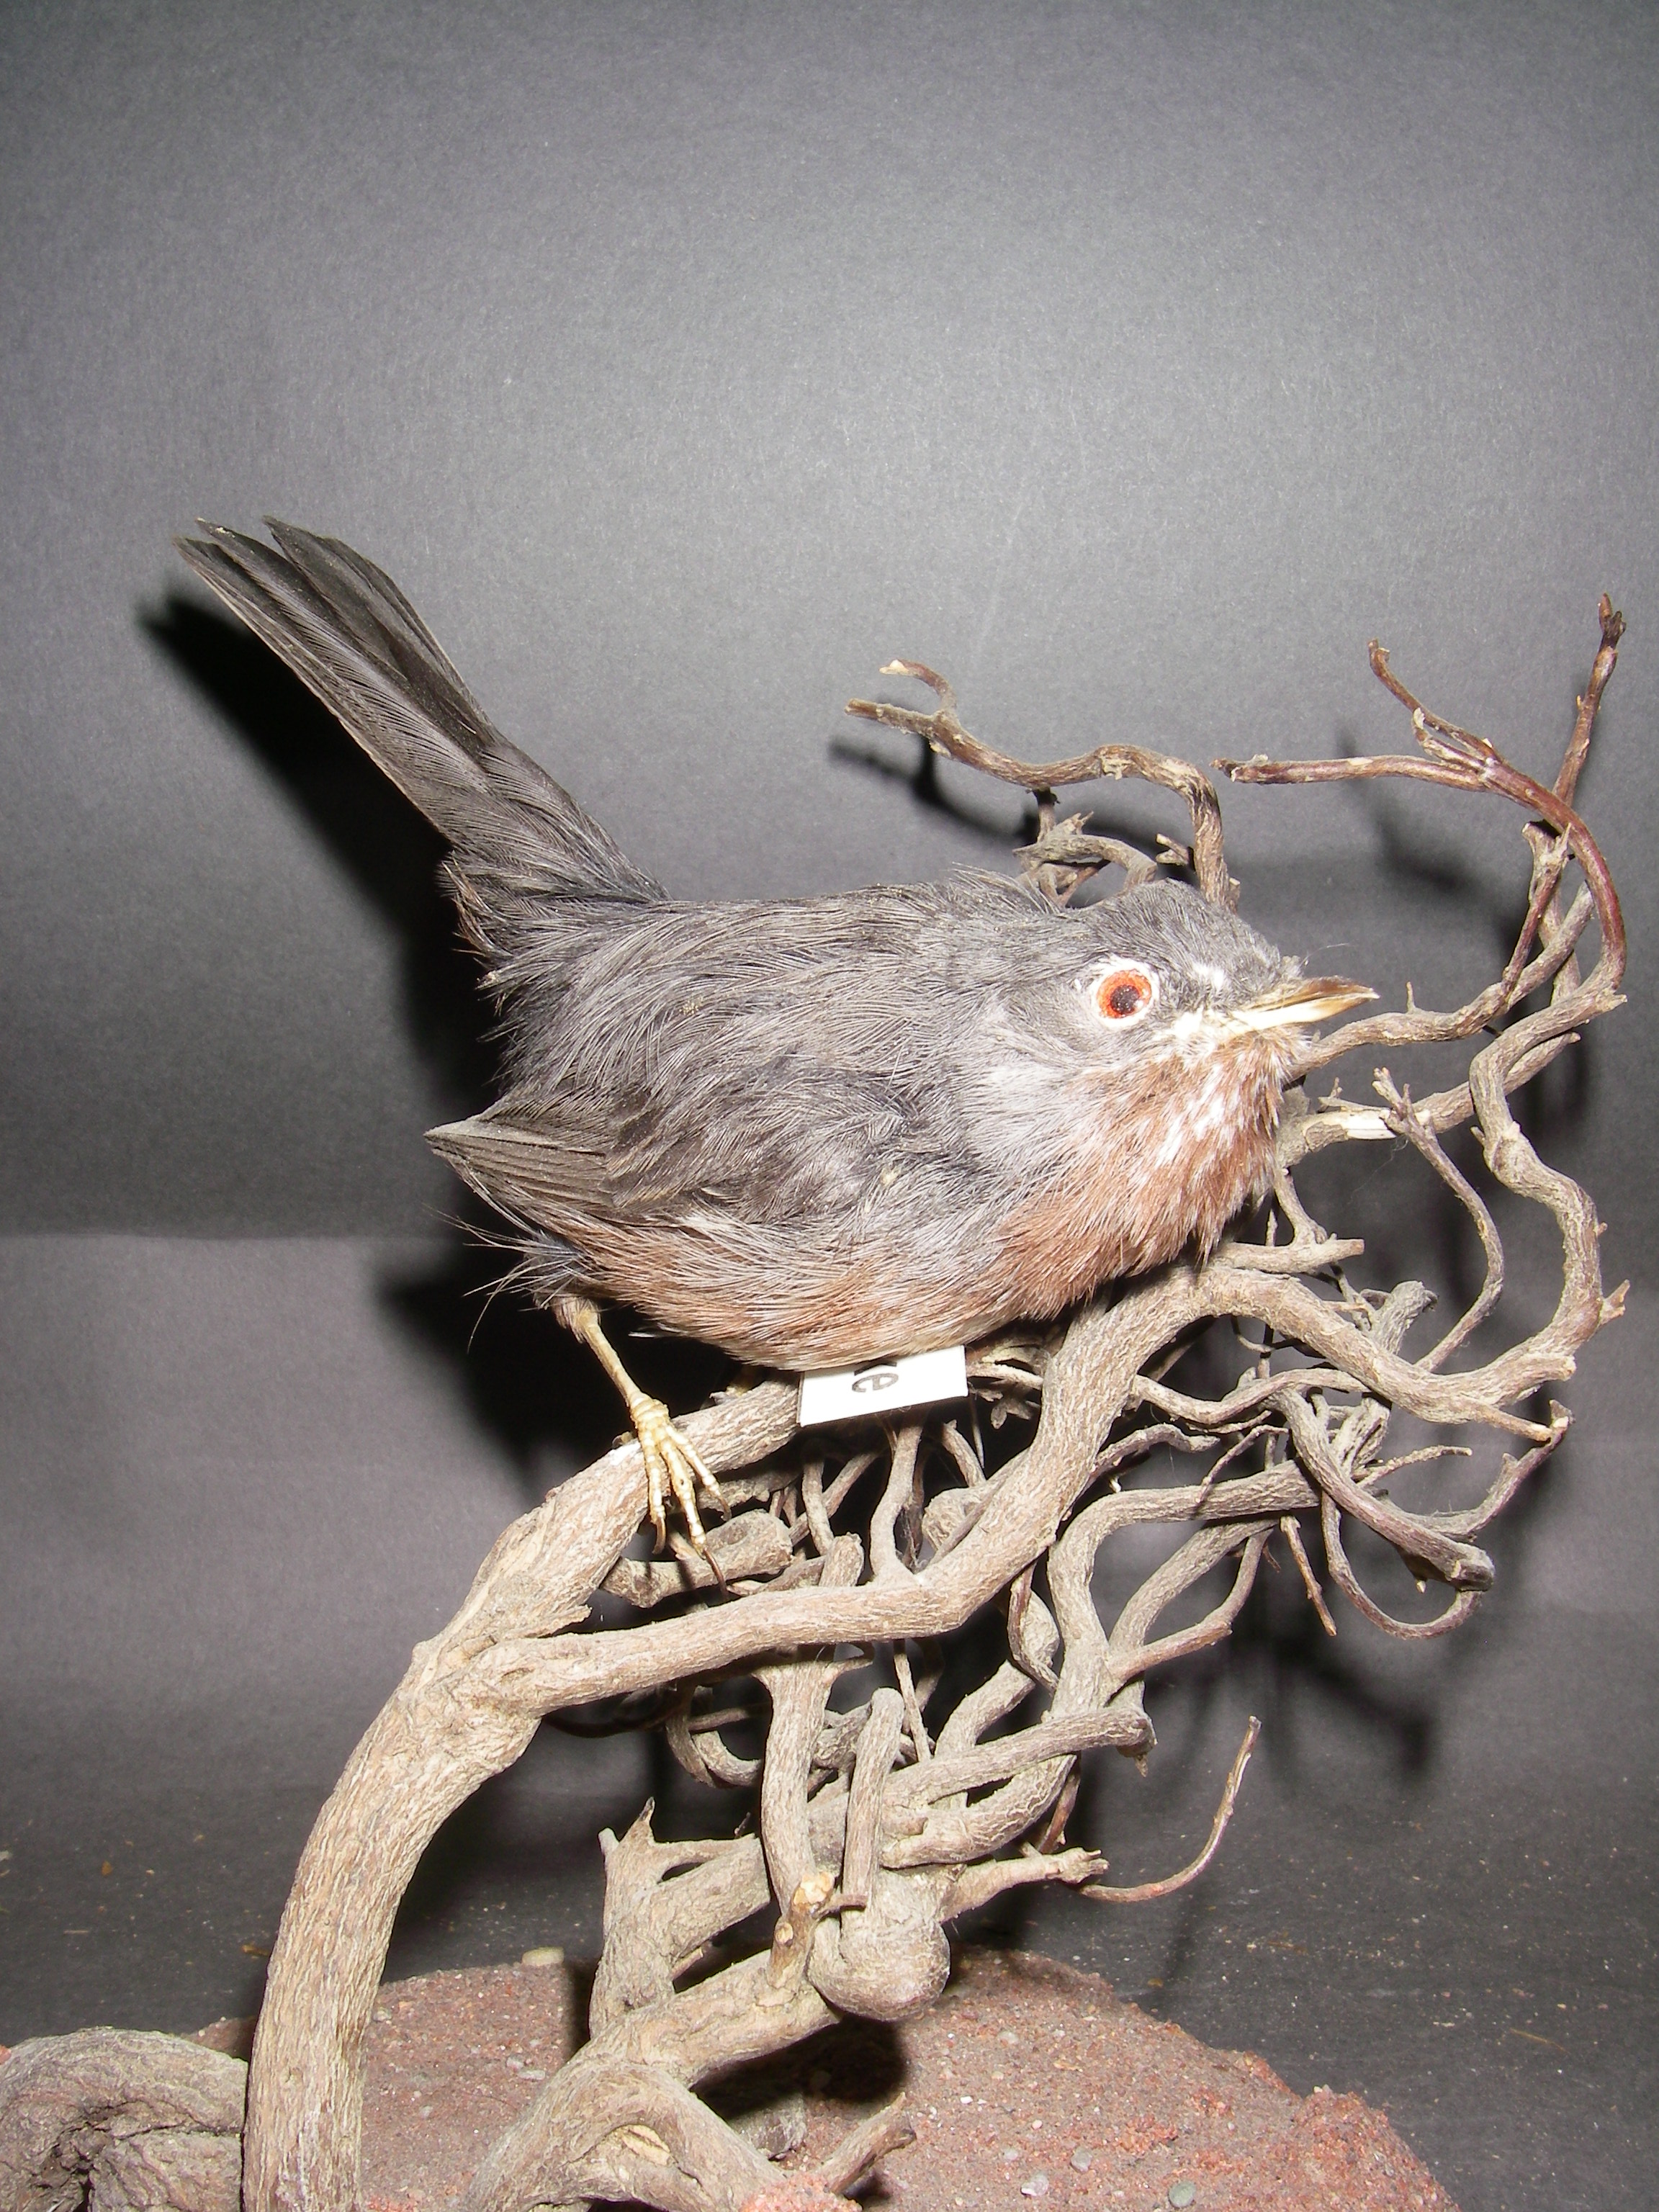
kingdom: Animalia
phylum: Chordata
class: Aves
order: Passeriformes
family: Sylviidae
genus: Sylvia
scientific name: Sylvia undata
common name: Dartford warbler
